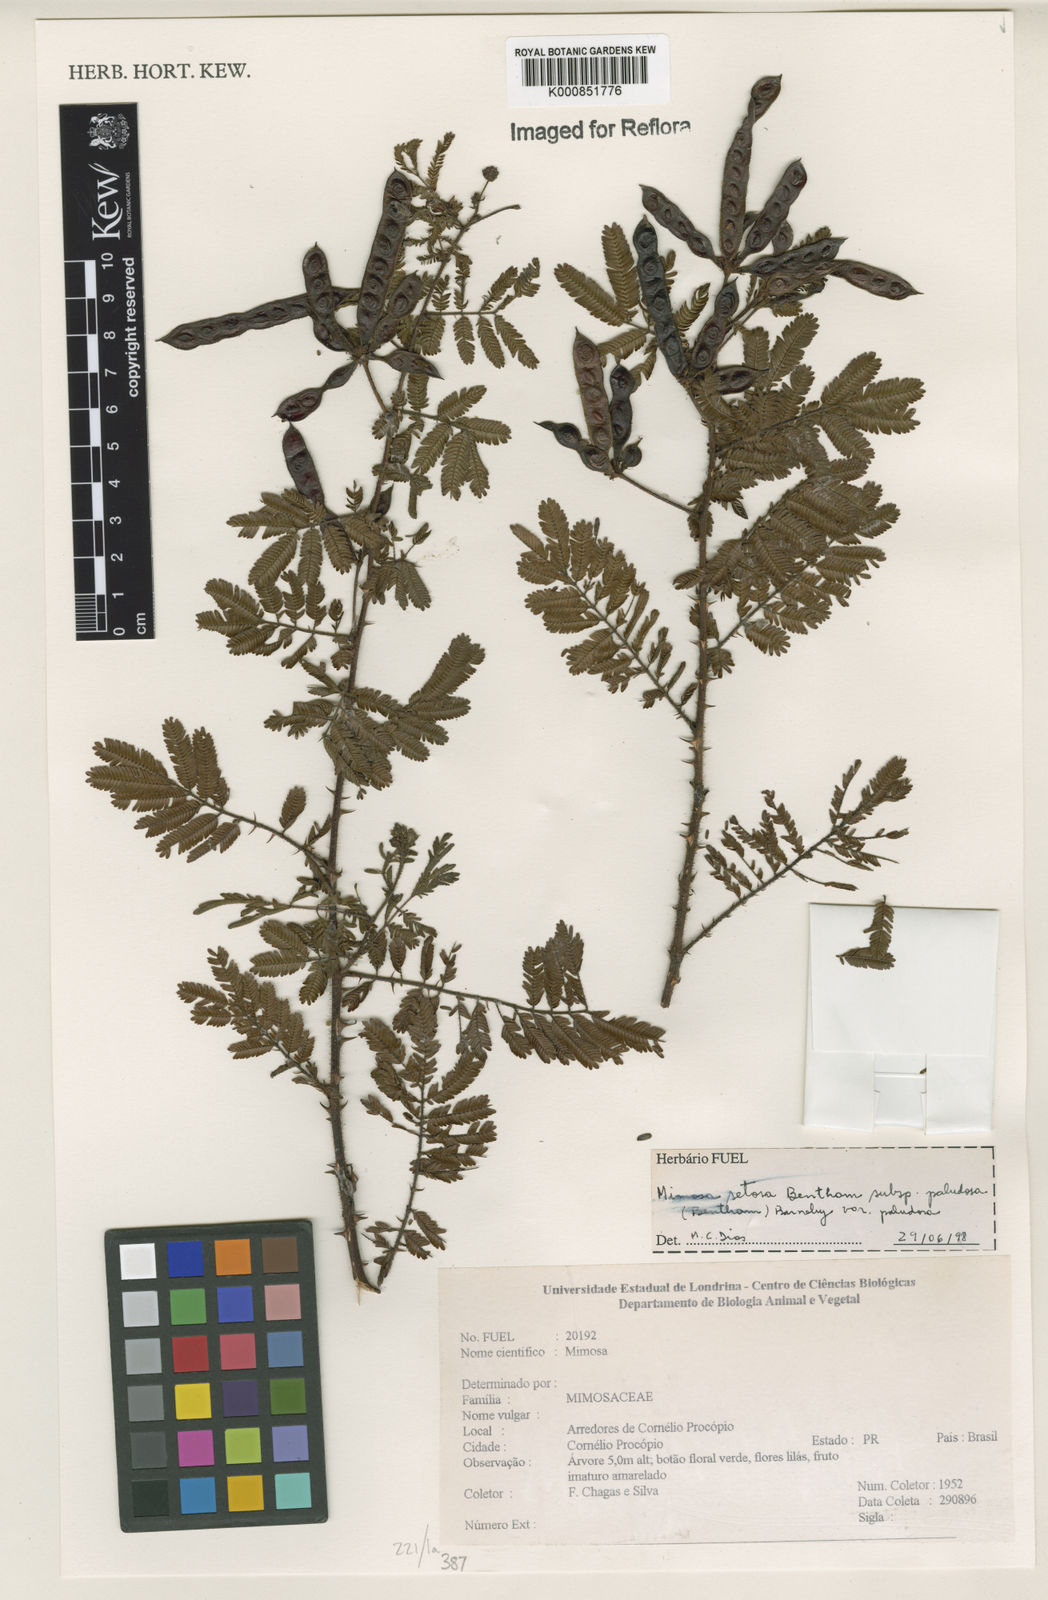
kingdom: Plantae
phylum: Tracheophyta
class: Magnoliopsida
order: Fabales
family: Fabaceae
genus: Mimosa
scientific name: Mimosa paludosa
